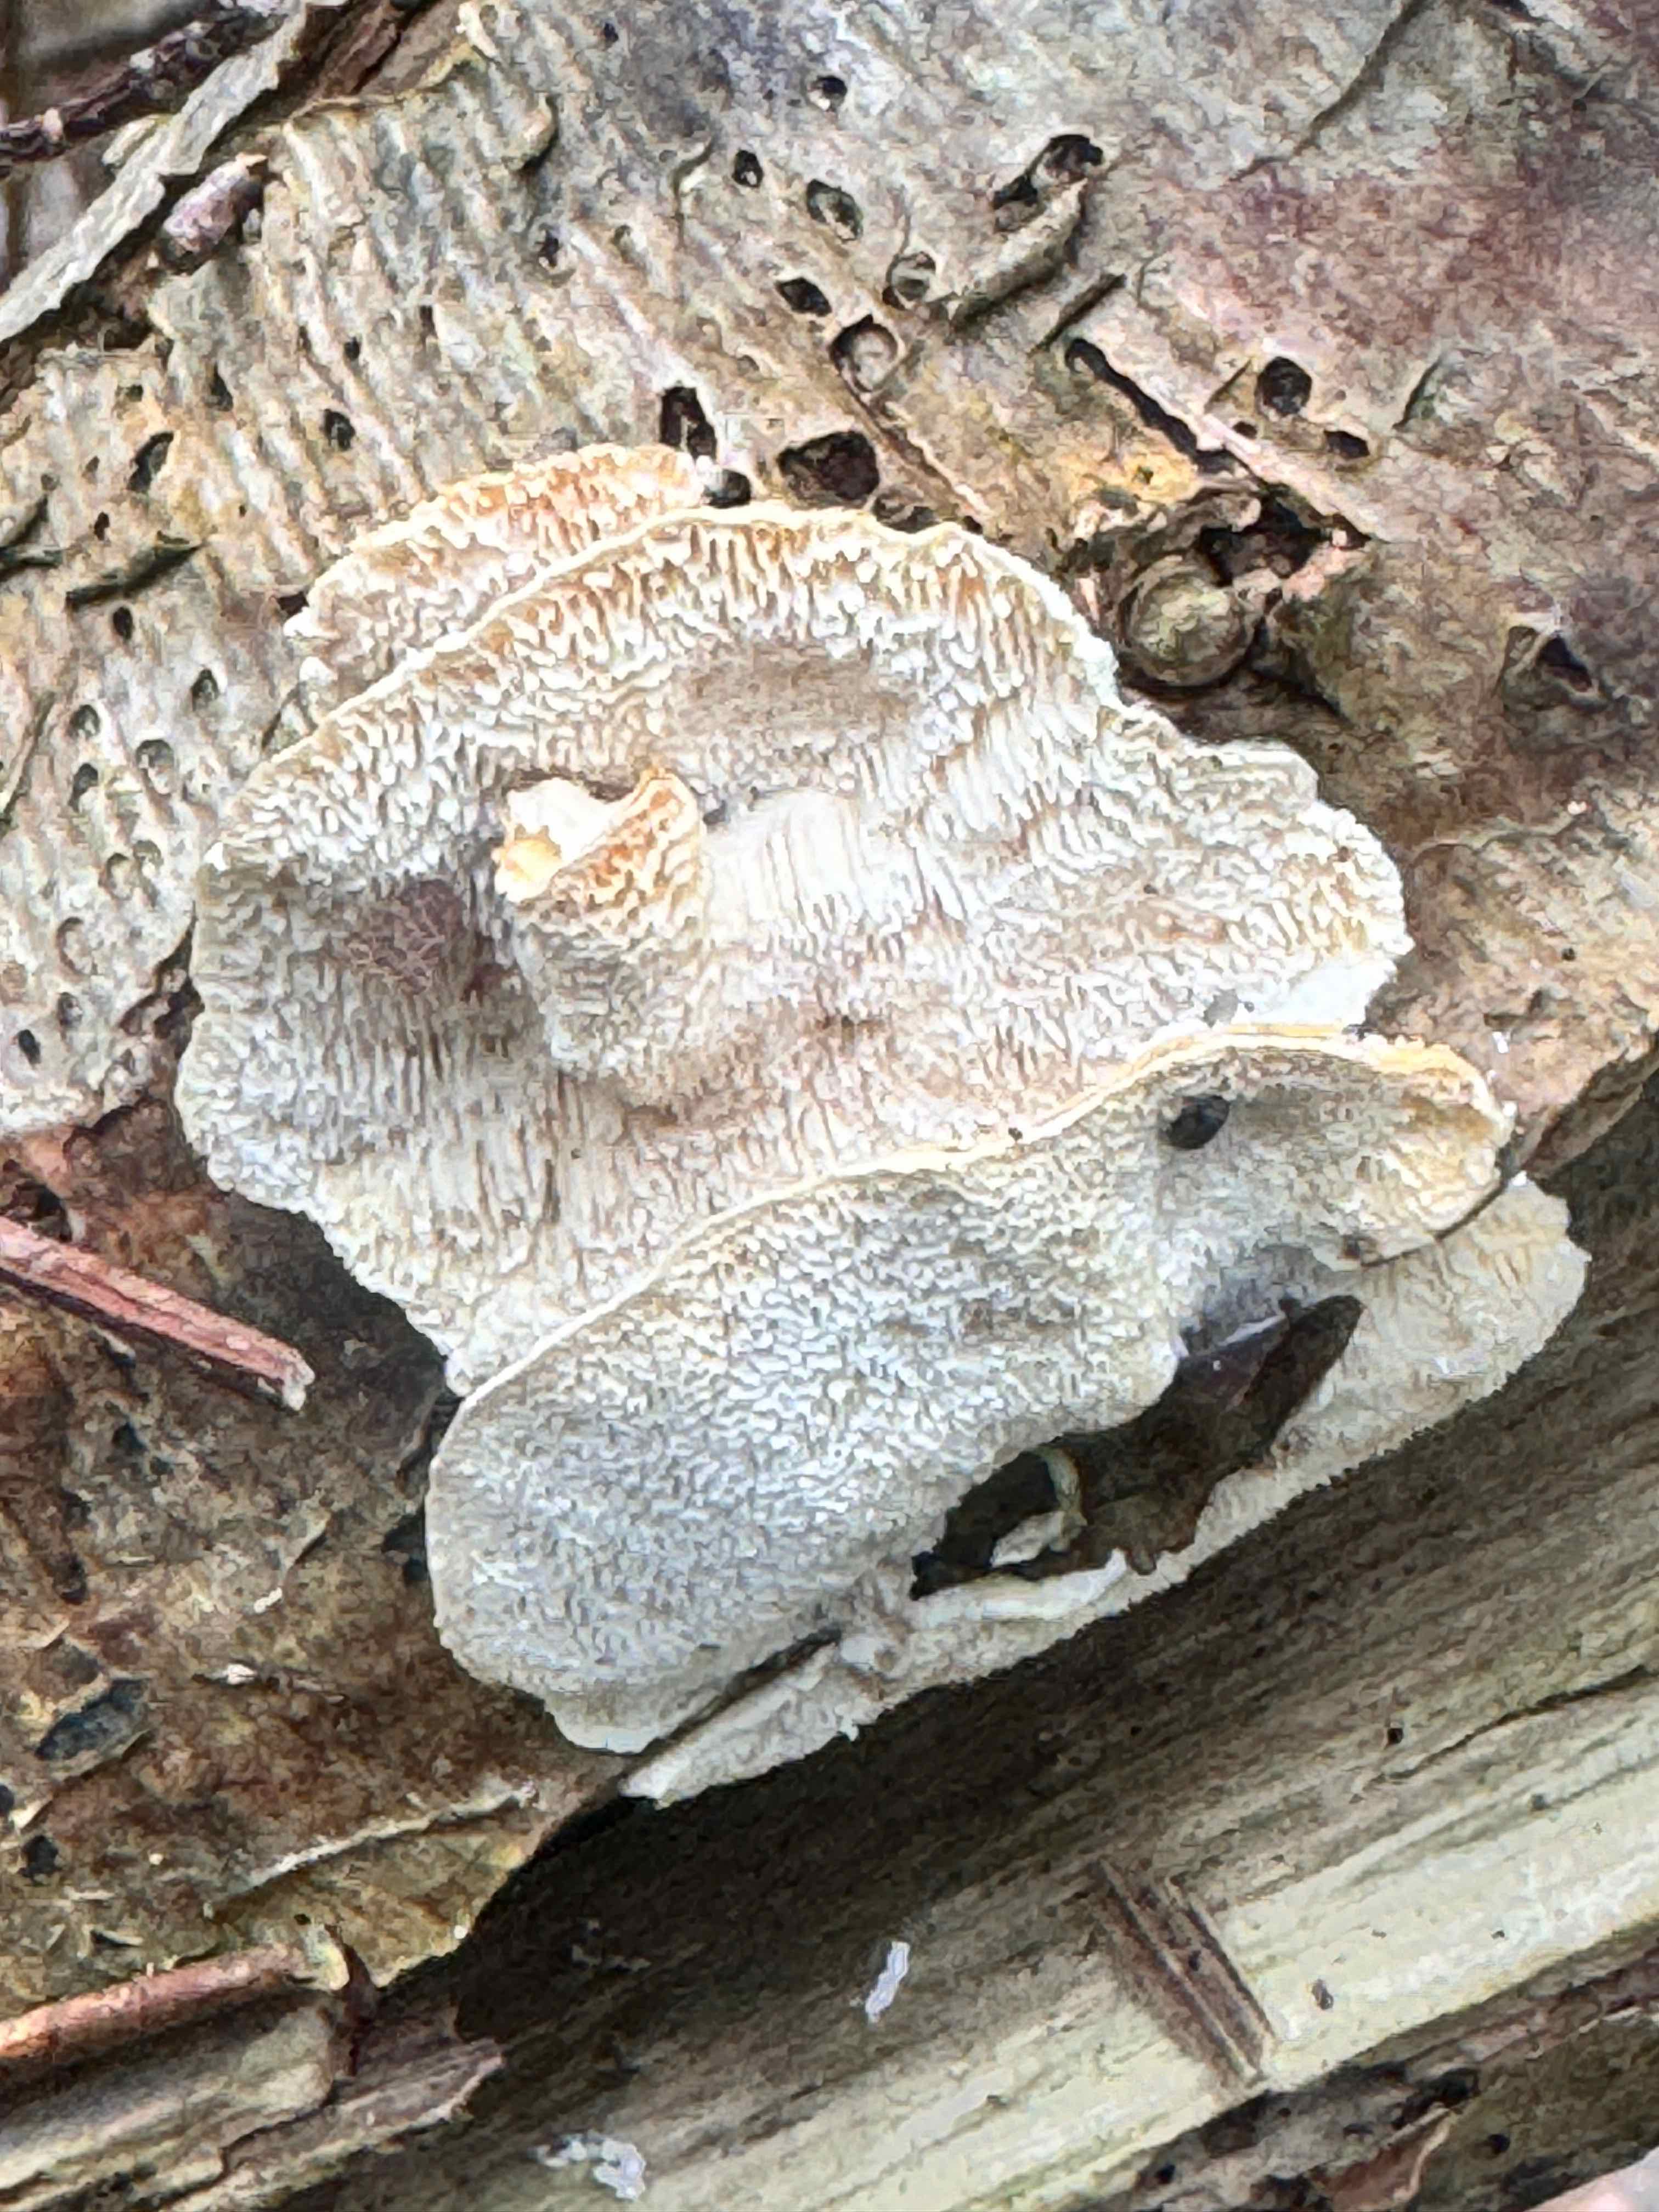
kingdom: Fungi
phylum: Basidiomycota
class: Agaricomycetes
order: Polyporales
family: Polyporaceae
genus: Trametes
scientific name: Trametes ochracea
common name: bæltet læderporesvamp
